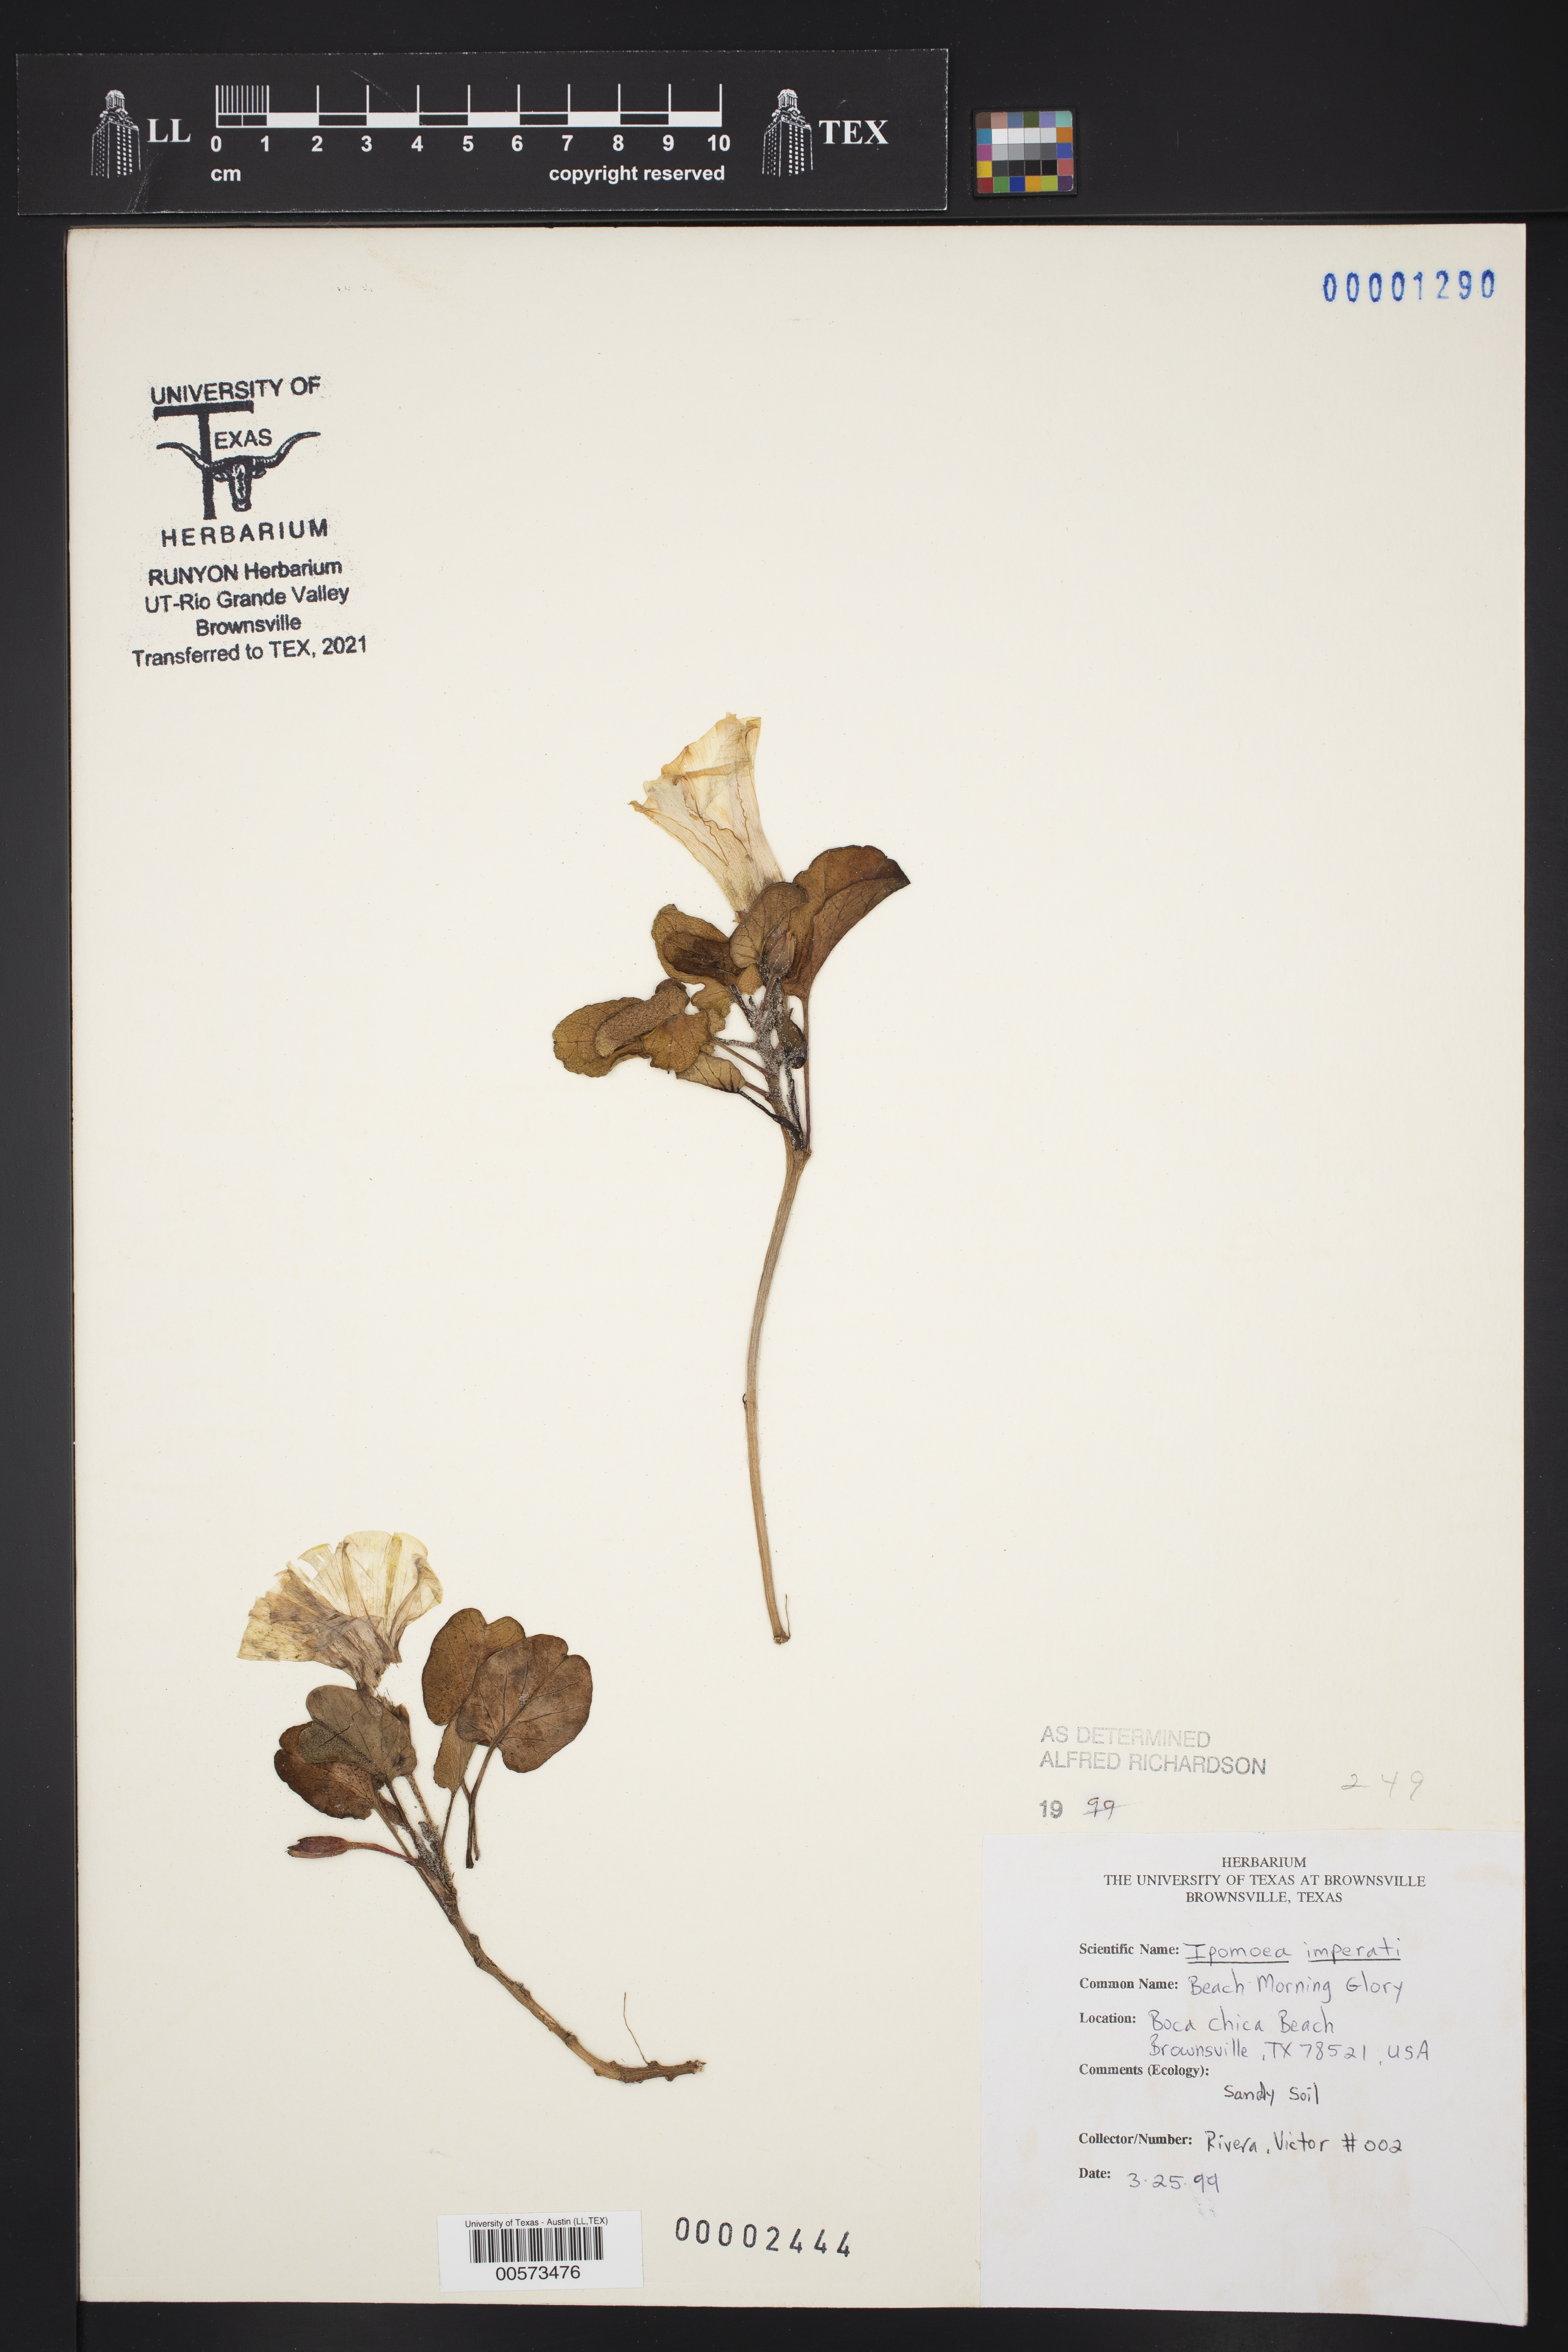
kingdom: Plantae
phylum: Tracheophyta
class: Magnoliopsida
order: Solanales
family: Convolvulaceae
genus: Ipomoea
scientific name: Ipomoea imperati
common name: Fiddle-leaf morning-glory
